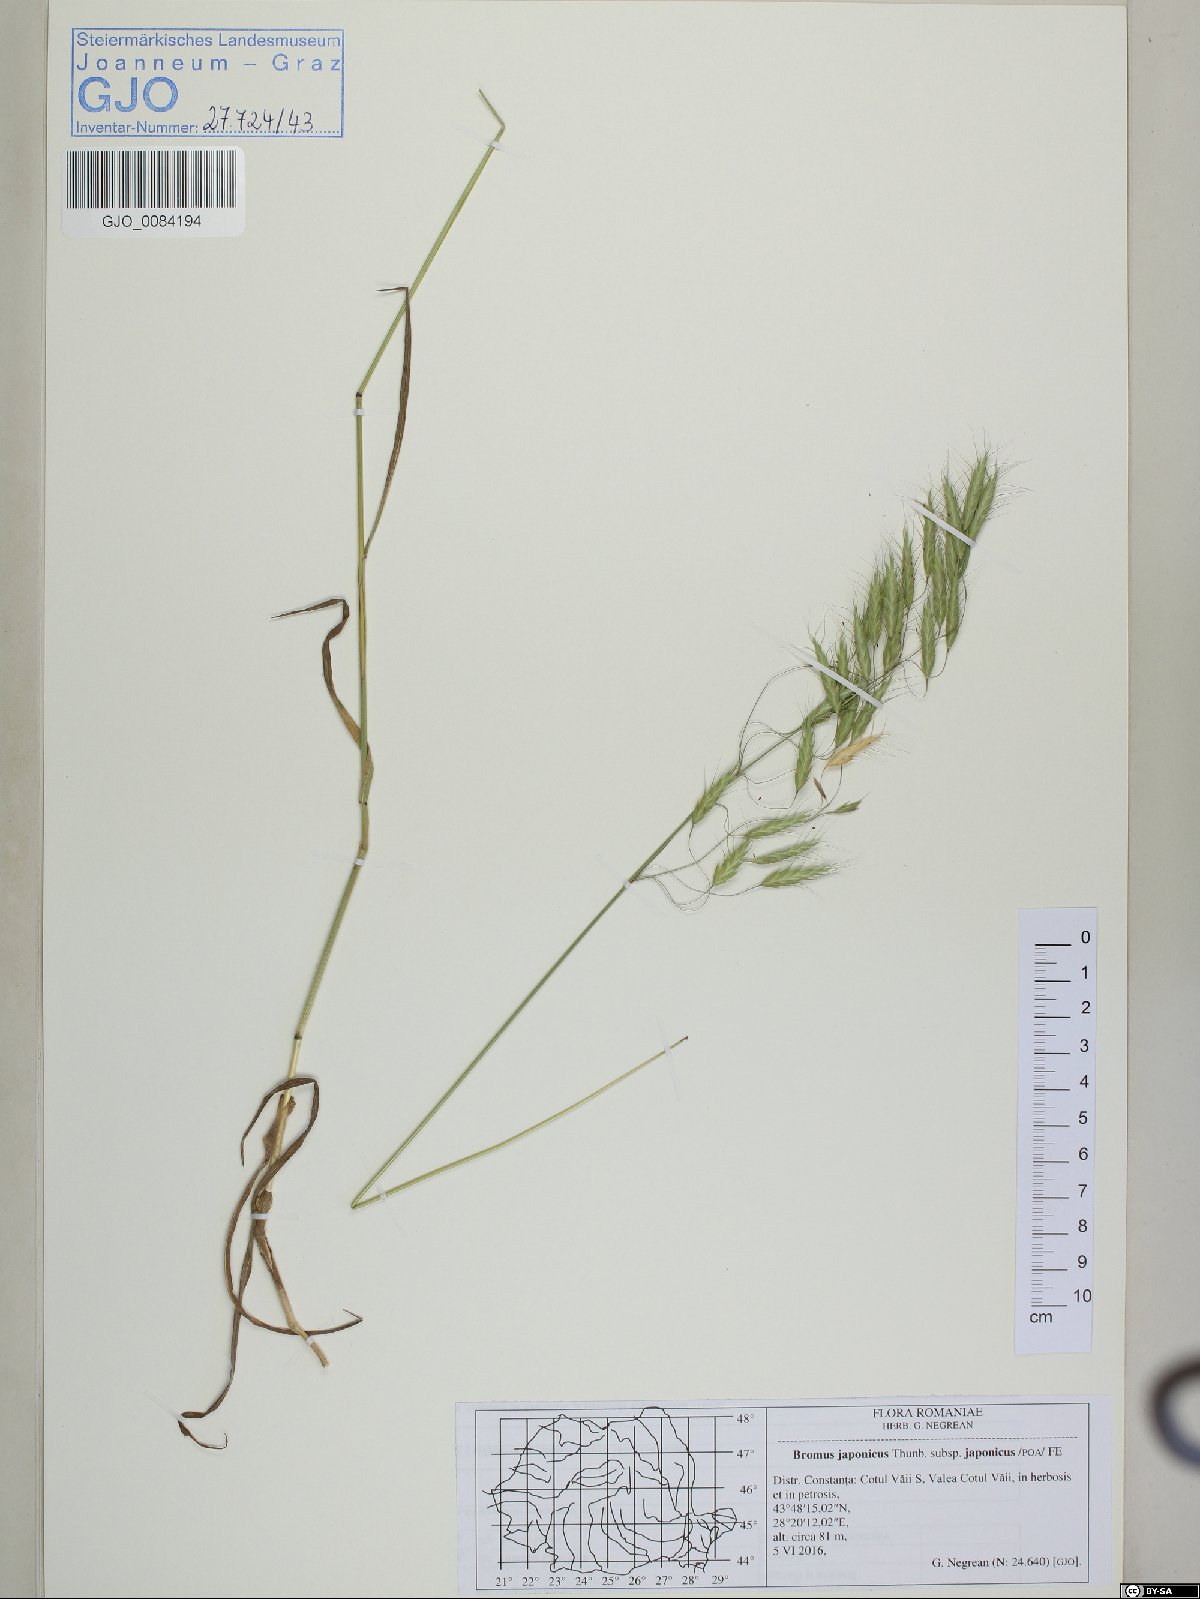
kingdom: Plantae
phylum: Tracheophyta
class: Liliopsida
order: Poales
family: Poaceae
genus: Bromus
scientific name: Bromus japonicus
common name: Japanese brome
